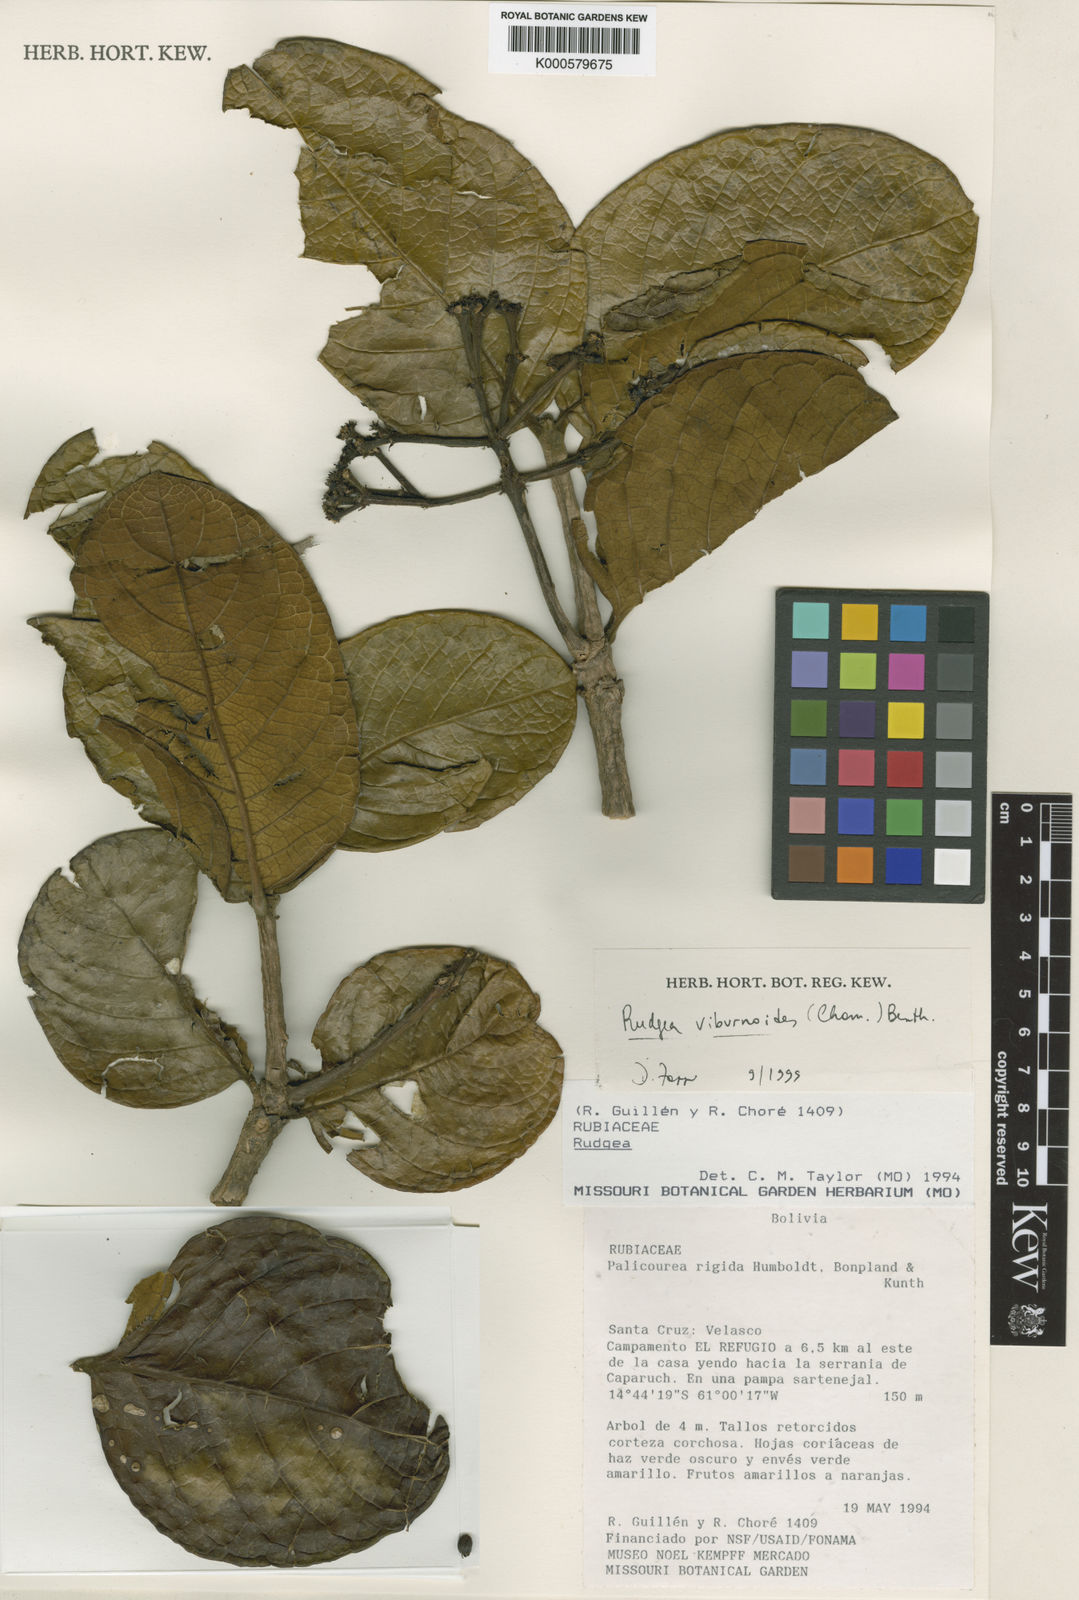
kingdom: Plantae
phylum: Tracheophyta
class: Magnoliopsida
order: Gentianales
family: Rubiaceae
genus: Rudgea
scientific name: Rudgea viburnoides
